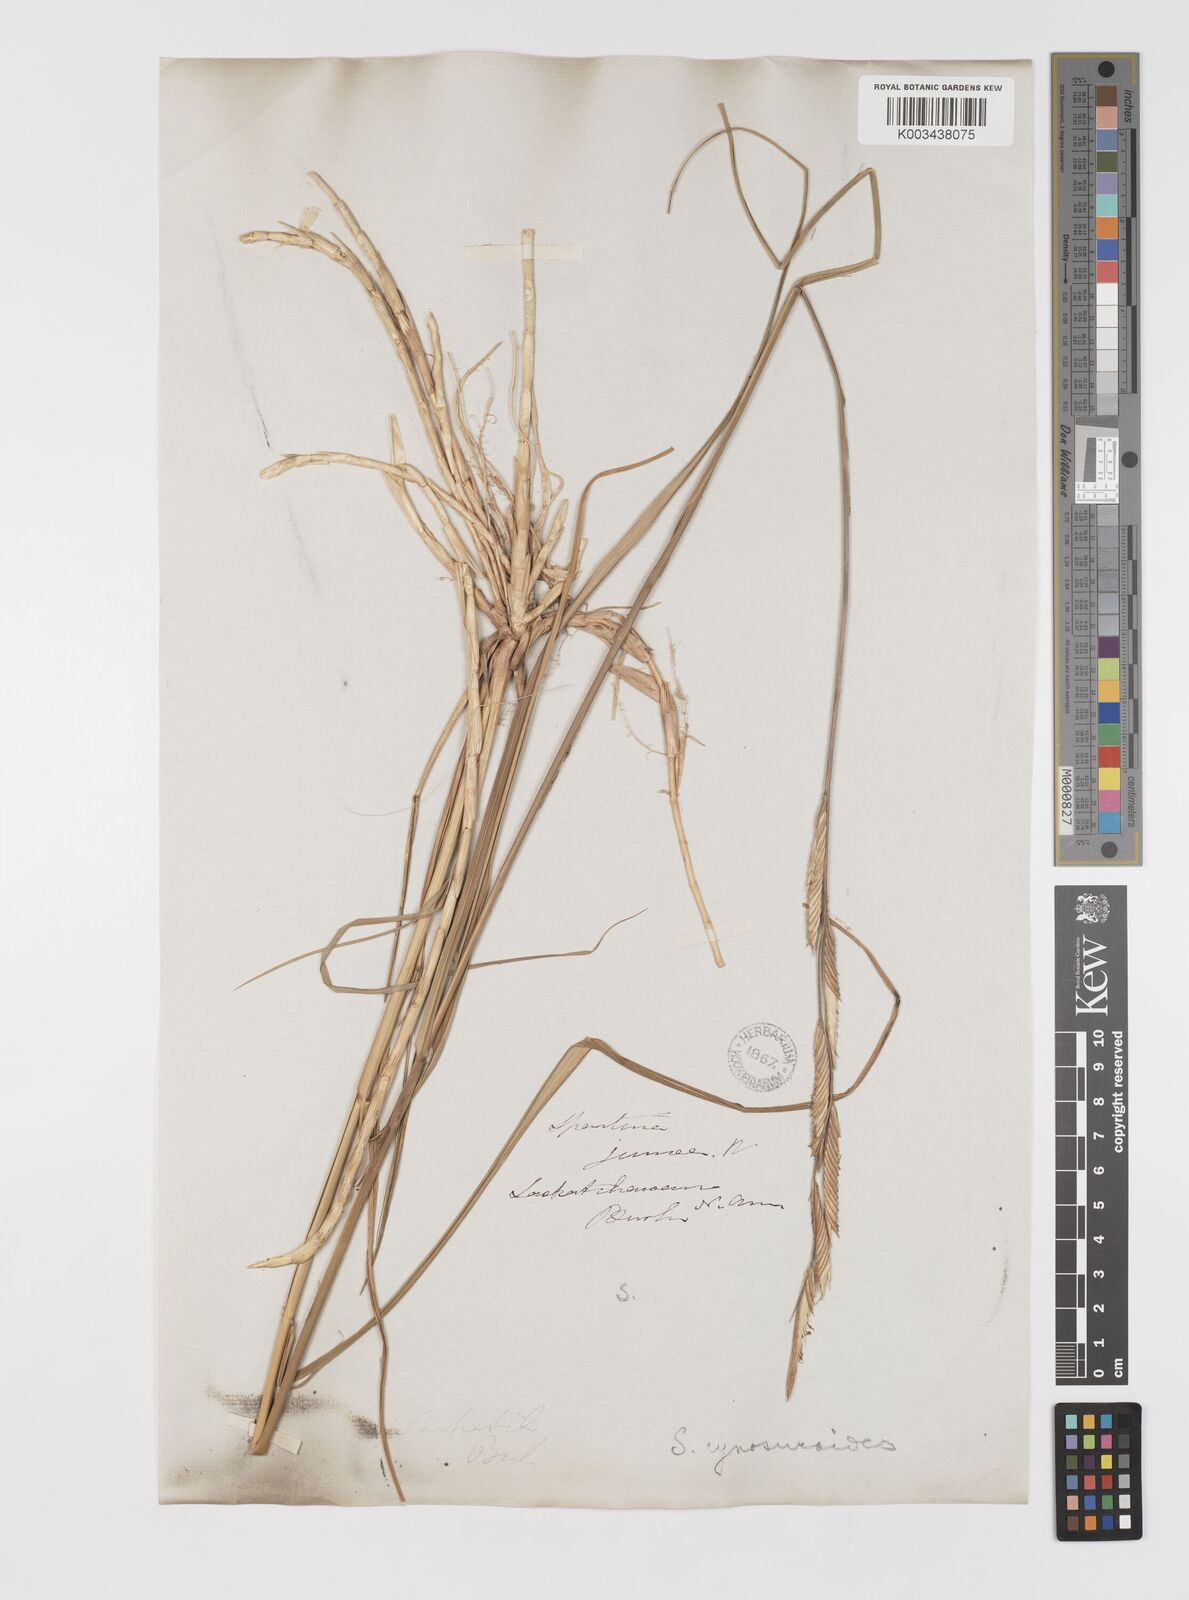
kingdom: Plantae
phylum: Tracheophyta
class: Liliopsida
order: Poales
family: Poaceae
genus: Sporobolus
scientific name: Sporobolus hookerianus
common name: Alkali cordgrass
